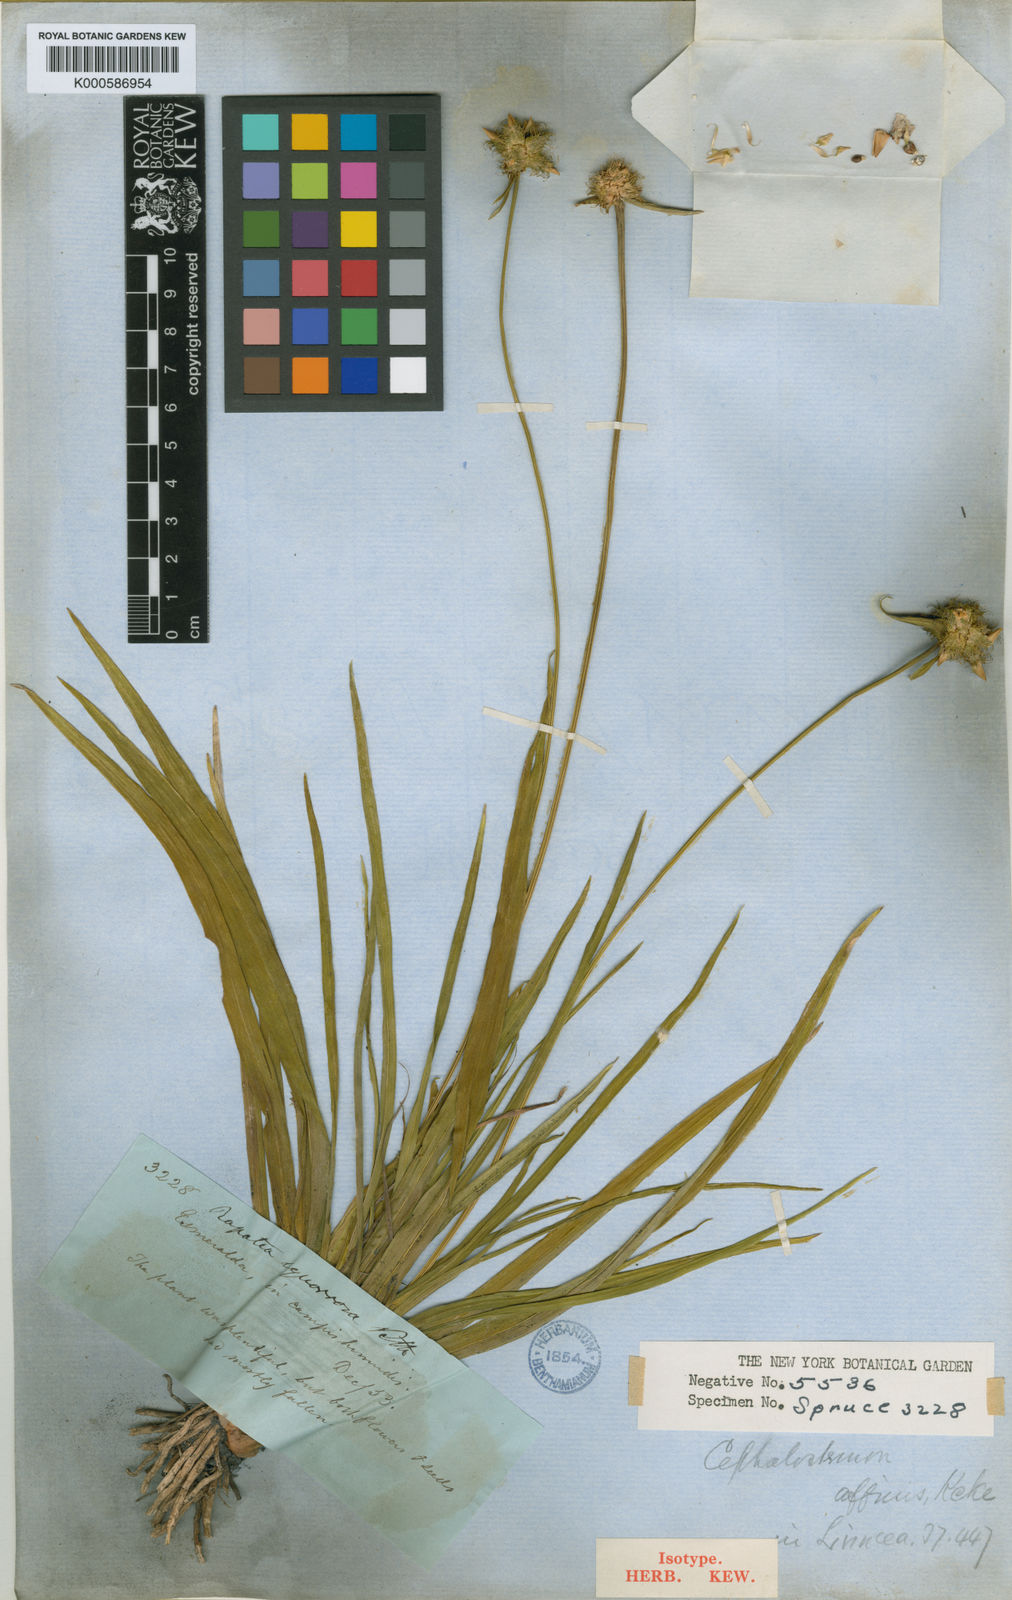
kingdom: Plantae
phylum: Tracheophyta
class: Liliopsida
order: Poales
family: Rapateaceae
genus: Cephalostemon
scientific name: Cephalostemon
